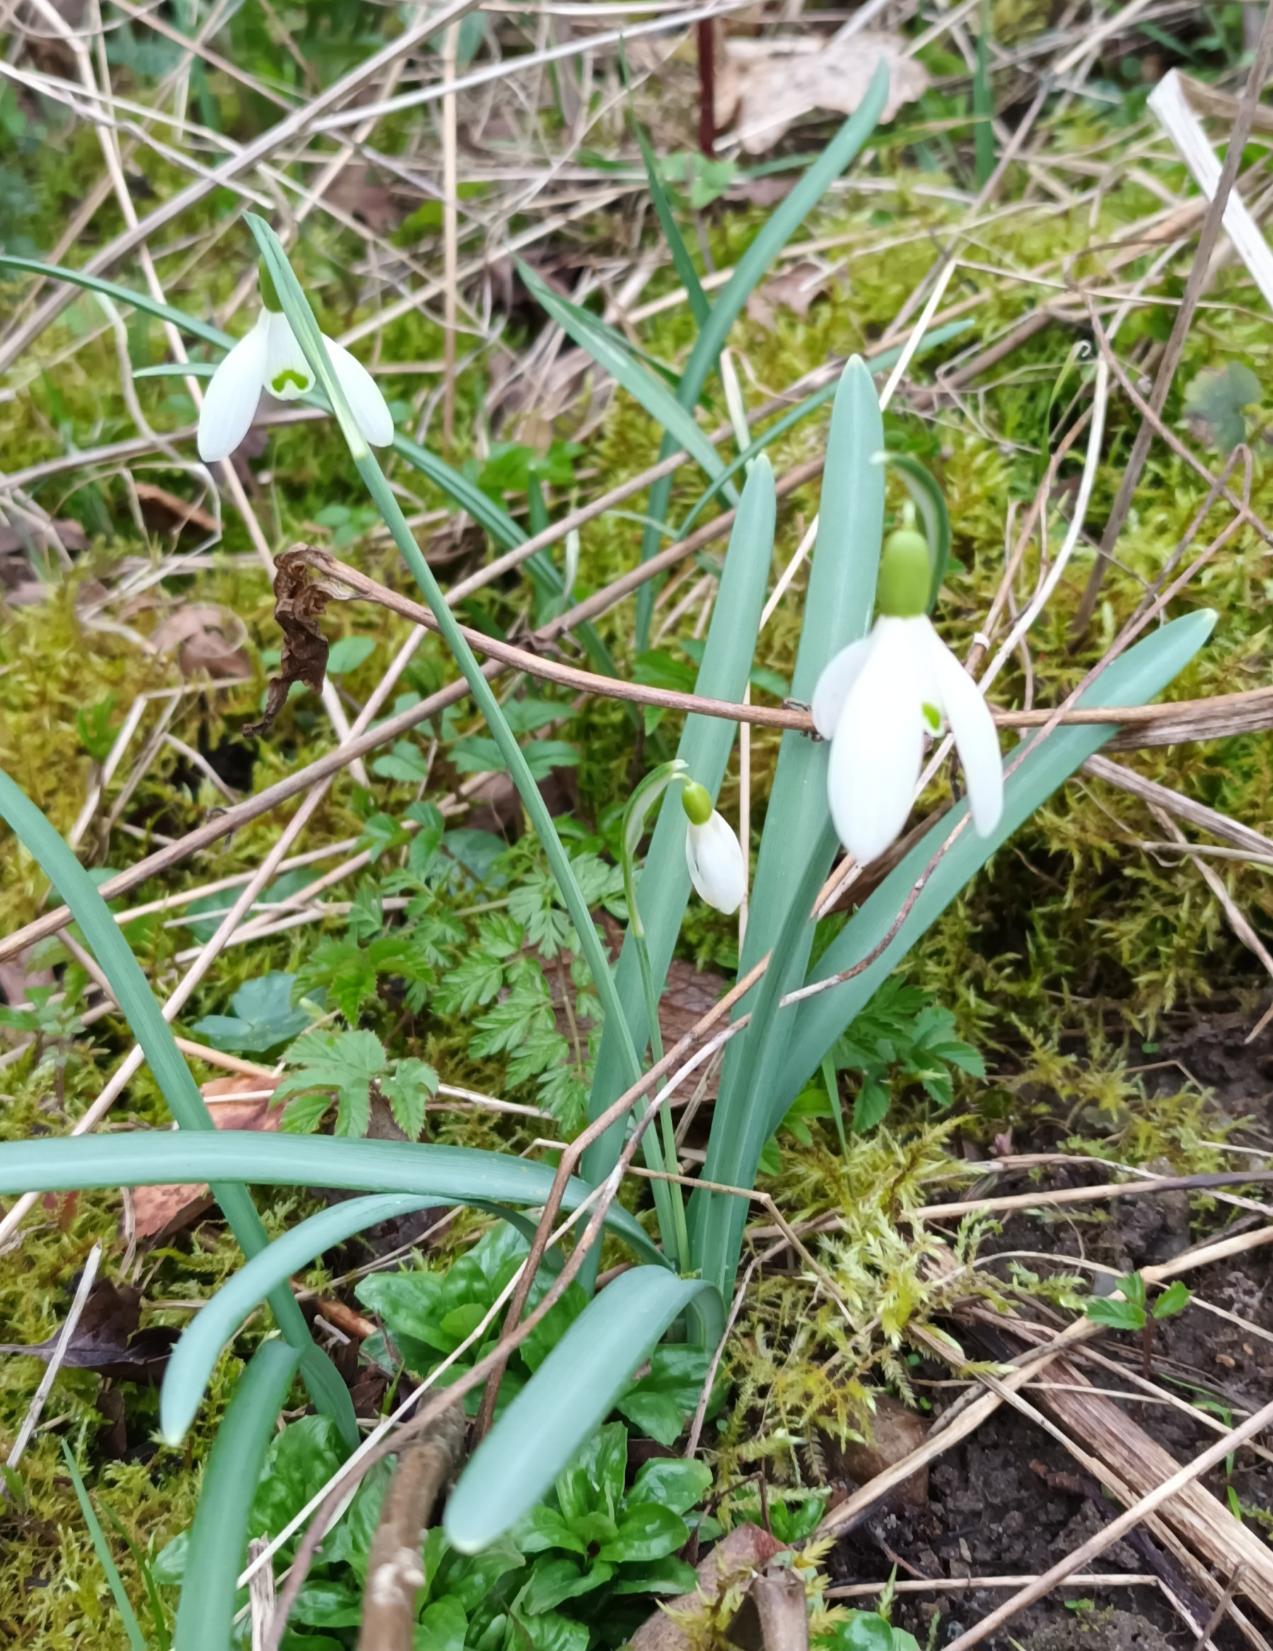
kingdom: Plantae
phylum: Tracheophyta
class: Liliopsida
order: Asparagales
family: Amaryllidaceae
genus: Galanthus
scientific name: Galanthus nivalis
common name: Vintergæk
